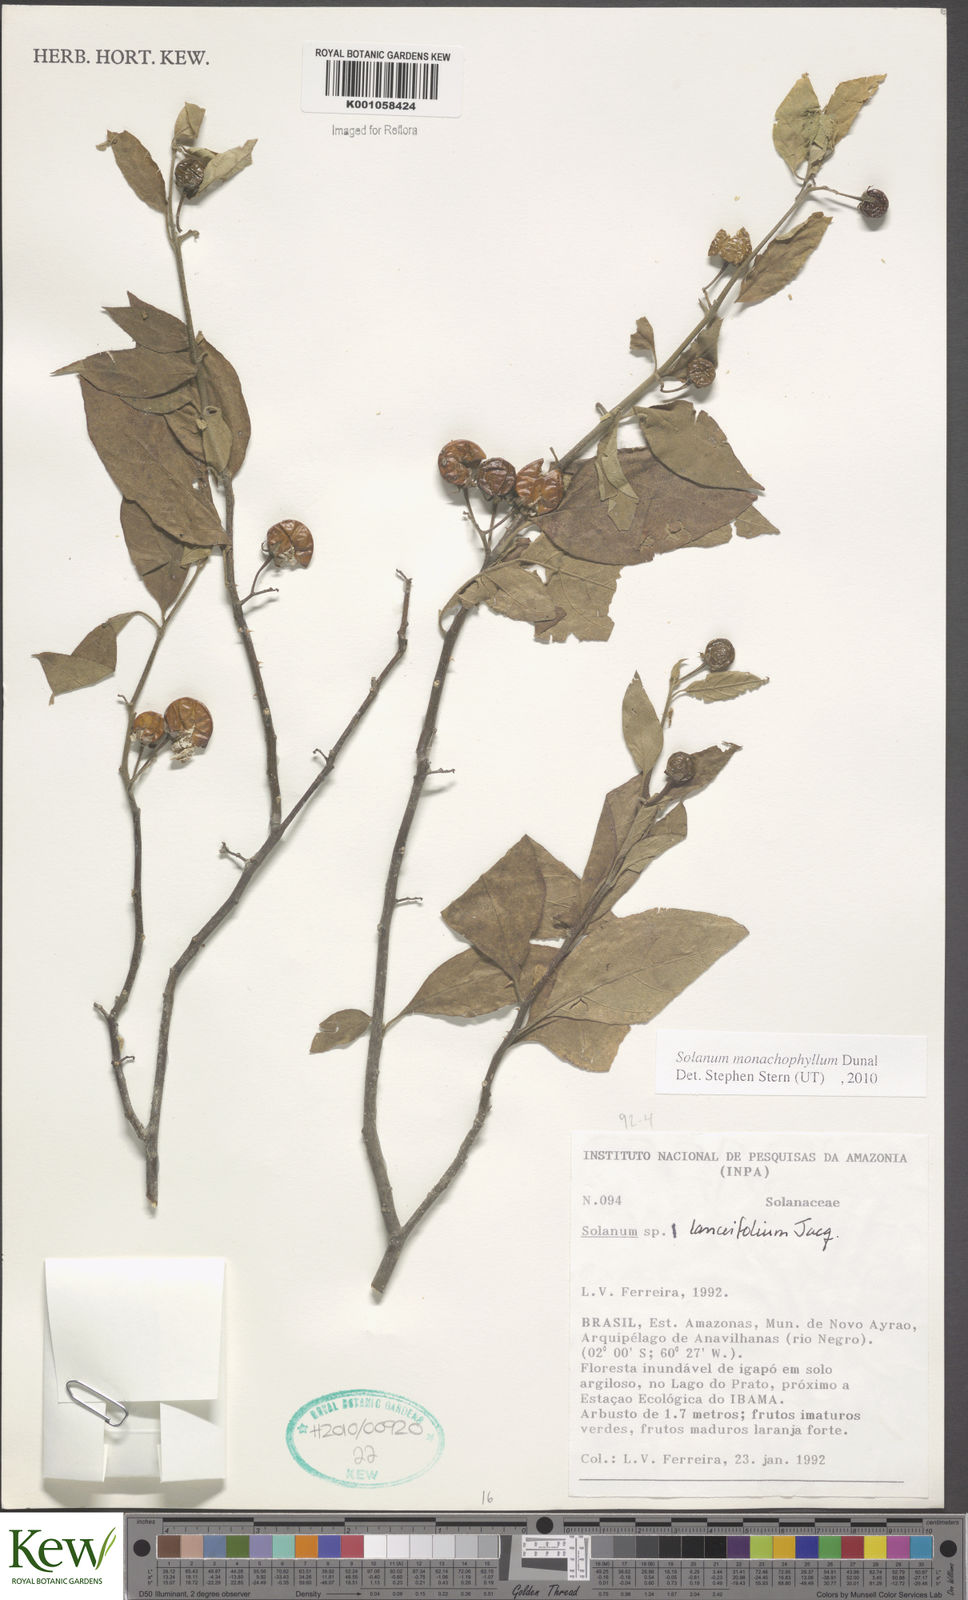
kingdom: Plantae
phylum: Tracheophyta
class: Magnoliopsida
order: Solanales
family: Solanaceae
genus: Solanum
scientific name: Solanum monachophyllum
